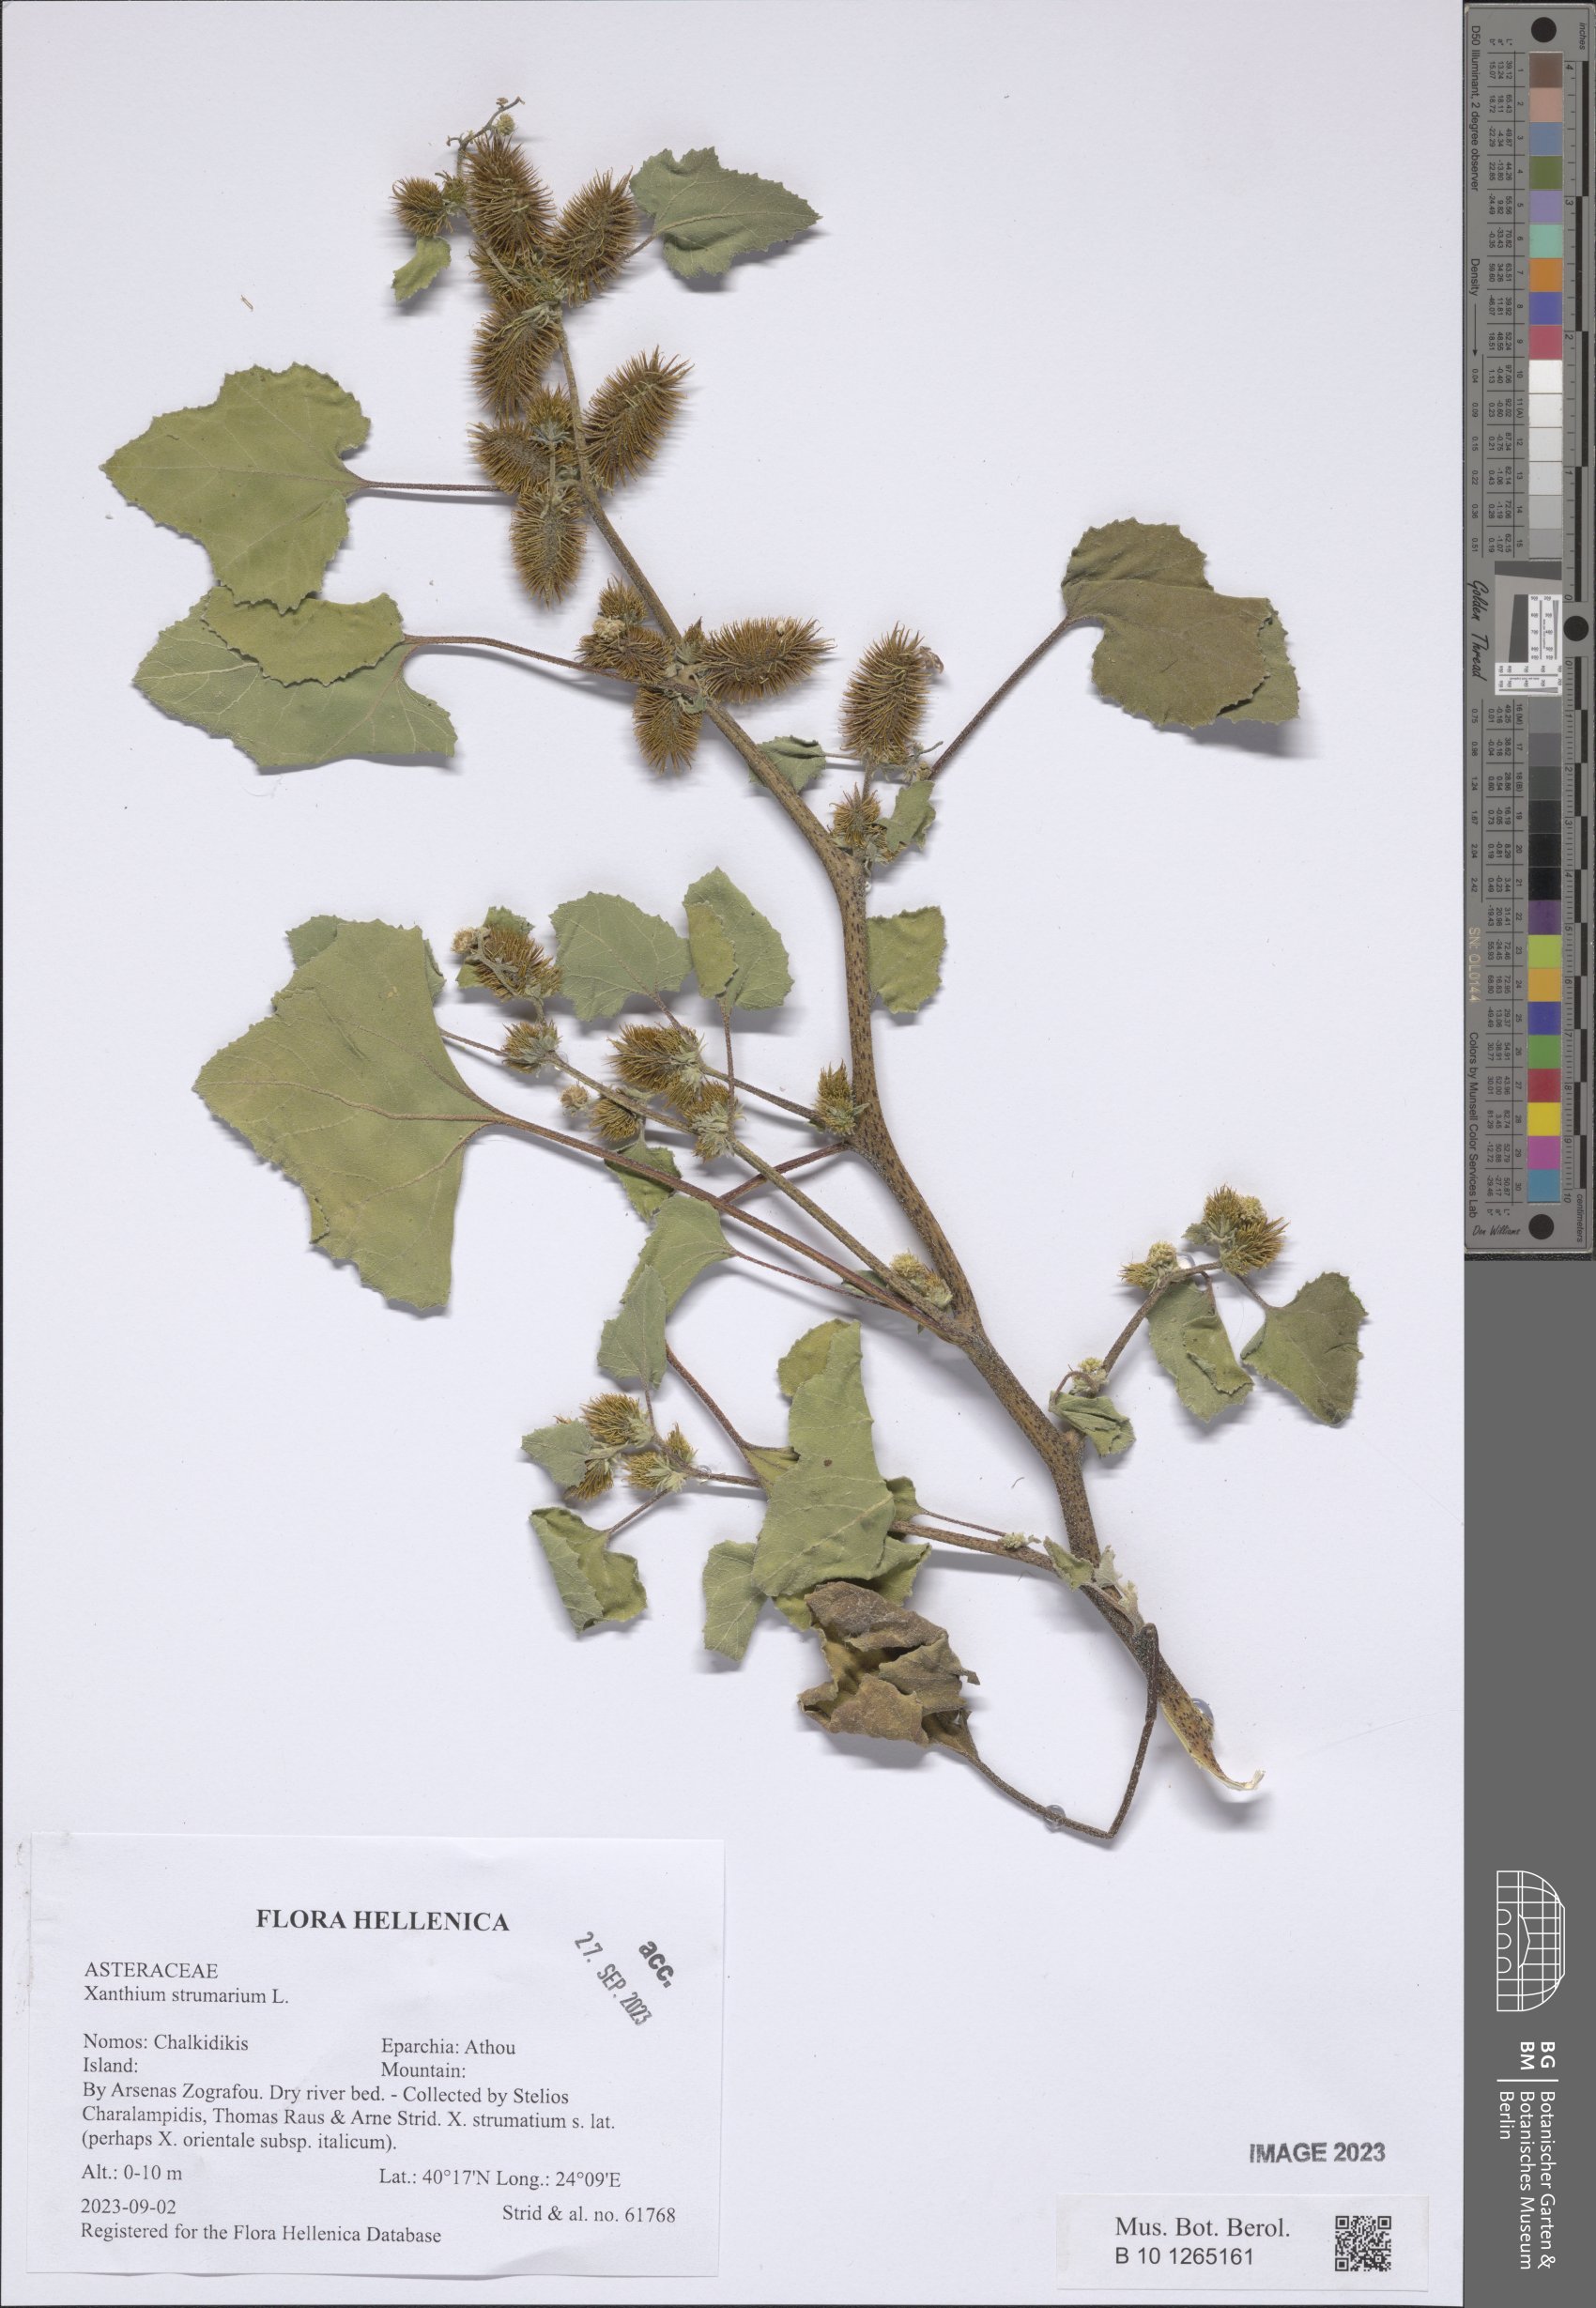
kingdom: Plantae
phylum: Tracheophyta
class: Magnoliopsida
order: Asterales
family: Asteraceae
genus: Xanthium
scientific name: Xanthium strumarium
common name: Rough cocklebur
